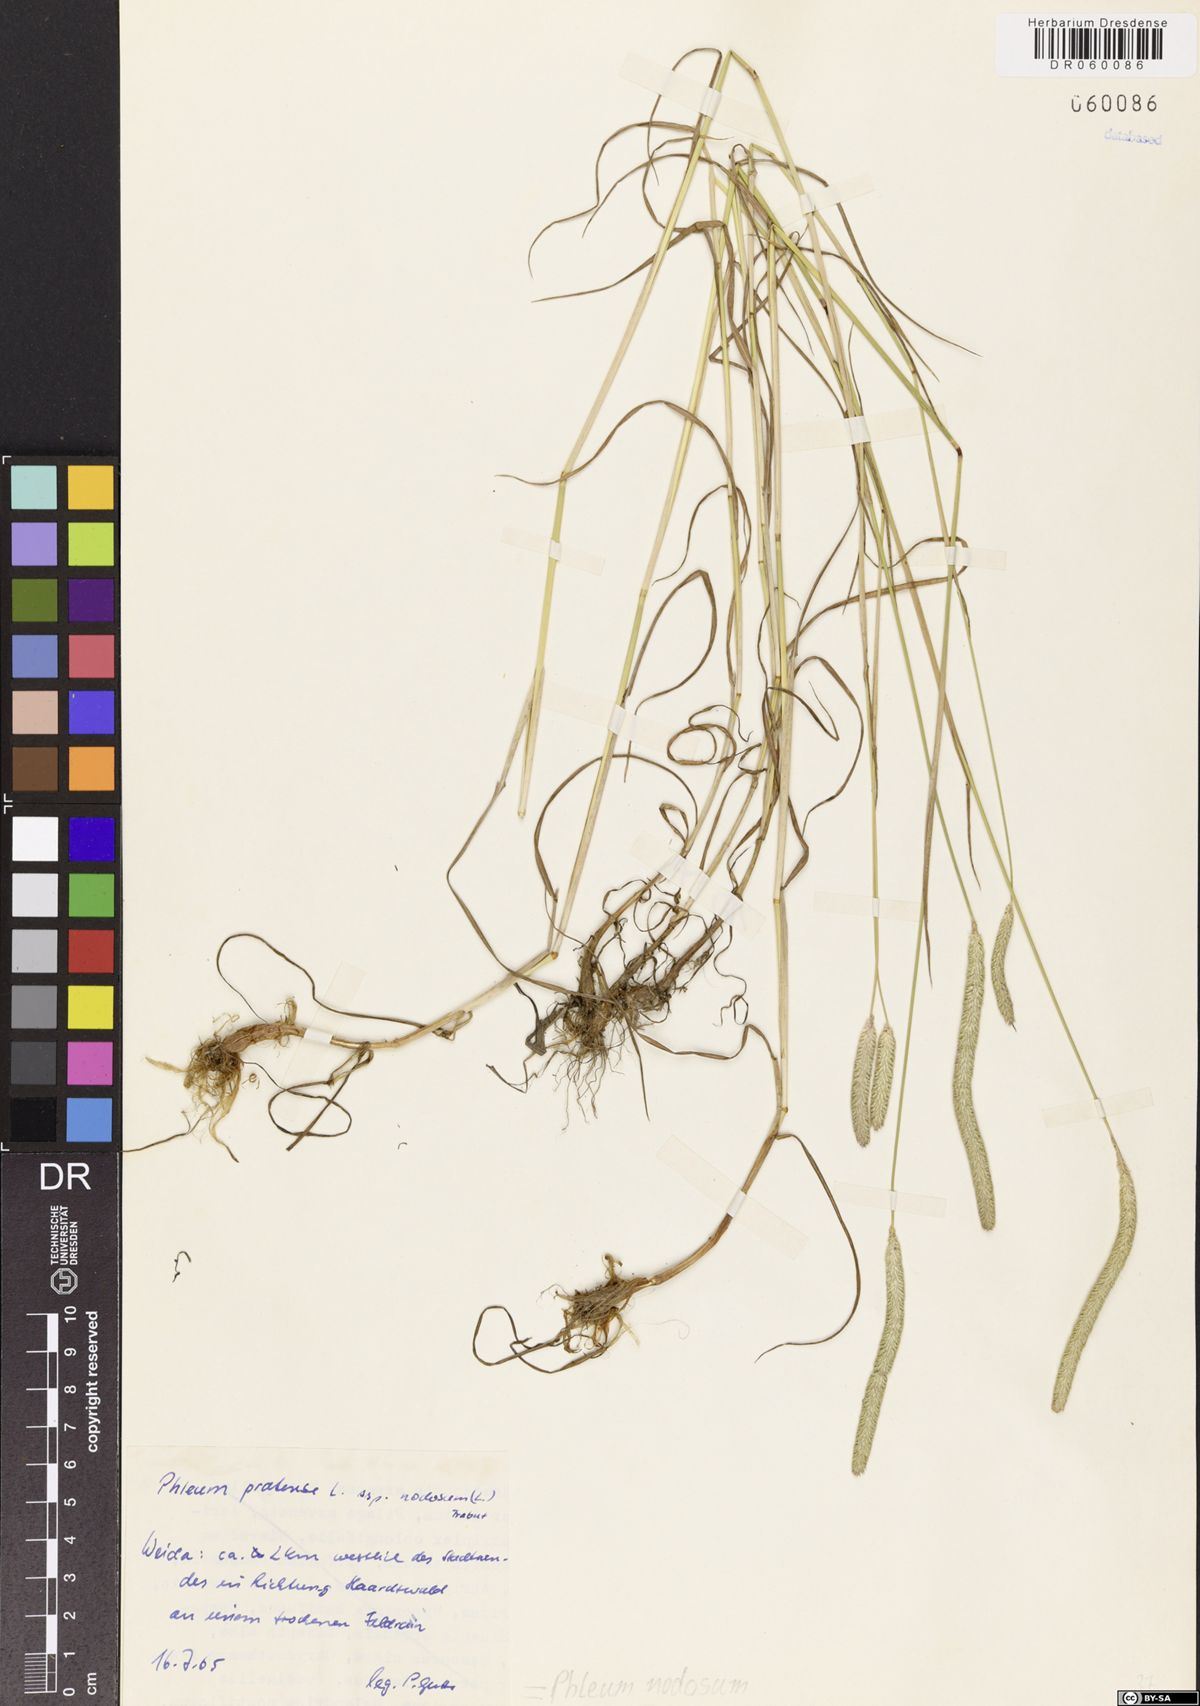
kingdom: Plantae
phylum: Tracheophyta
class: Liliopsida
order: Poales
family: Poaceae
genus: Phleum
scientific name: Phleum pratense
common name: Timothy grass
